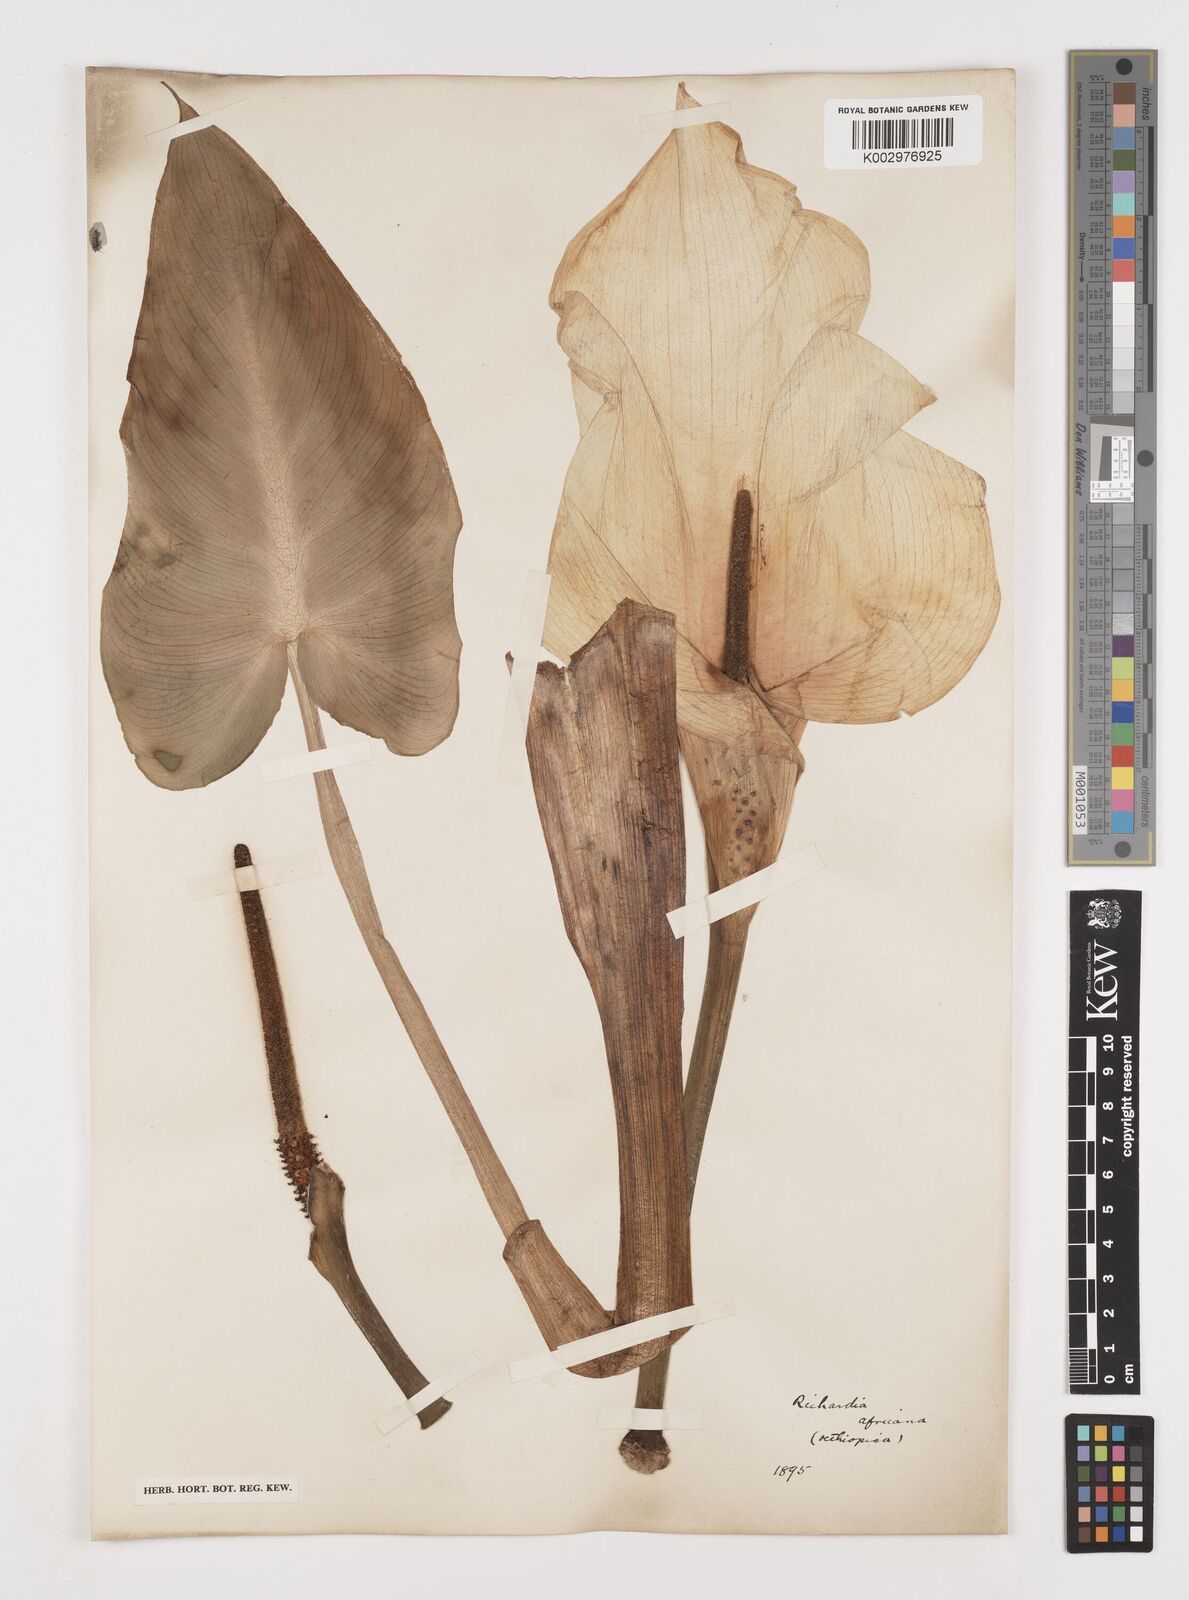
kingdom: Plantae
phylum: Tracheophyta
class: Liliopsida
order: Alismatales
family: Araceae
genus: Zantedeschia
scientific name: Zantedeschia aethiopica
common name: Altar-lily
